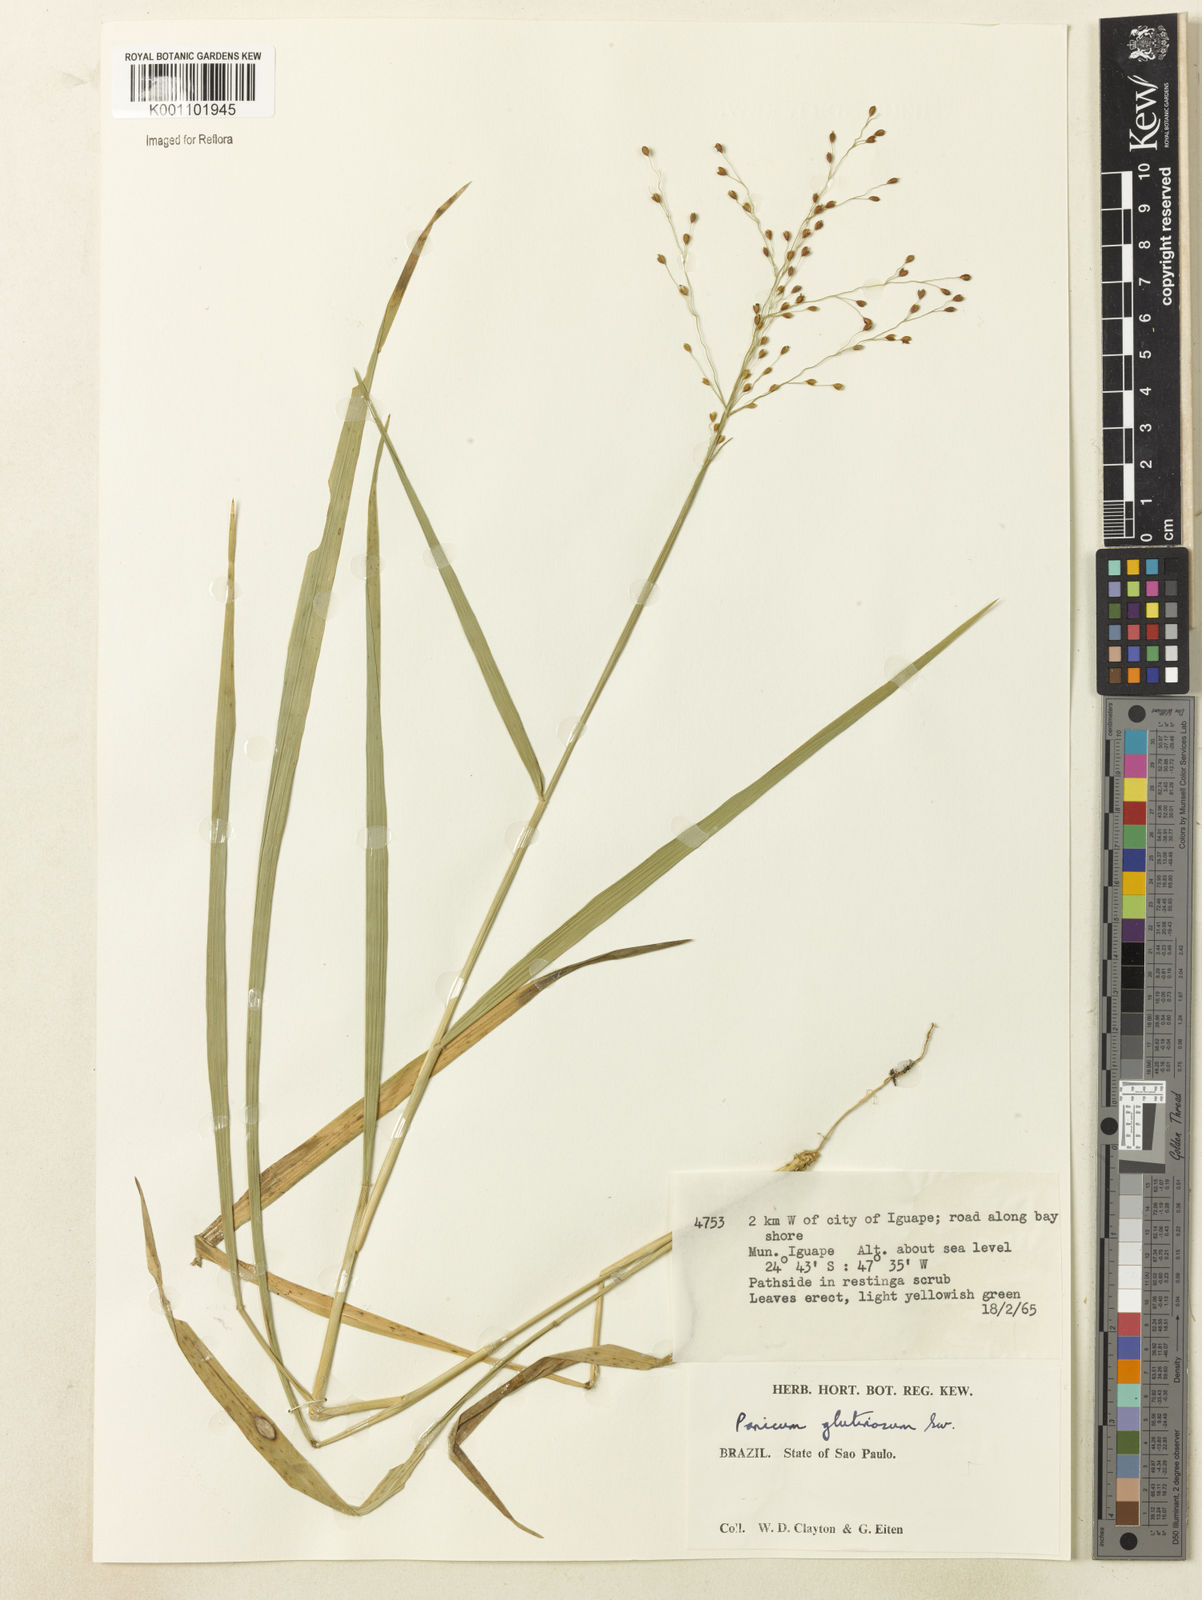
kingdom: Plantae
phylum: Tracheophyta
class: Liliopsida
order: Poales
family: Poaceae
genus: Homolepis
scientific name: Homolepis glutinosa
